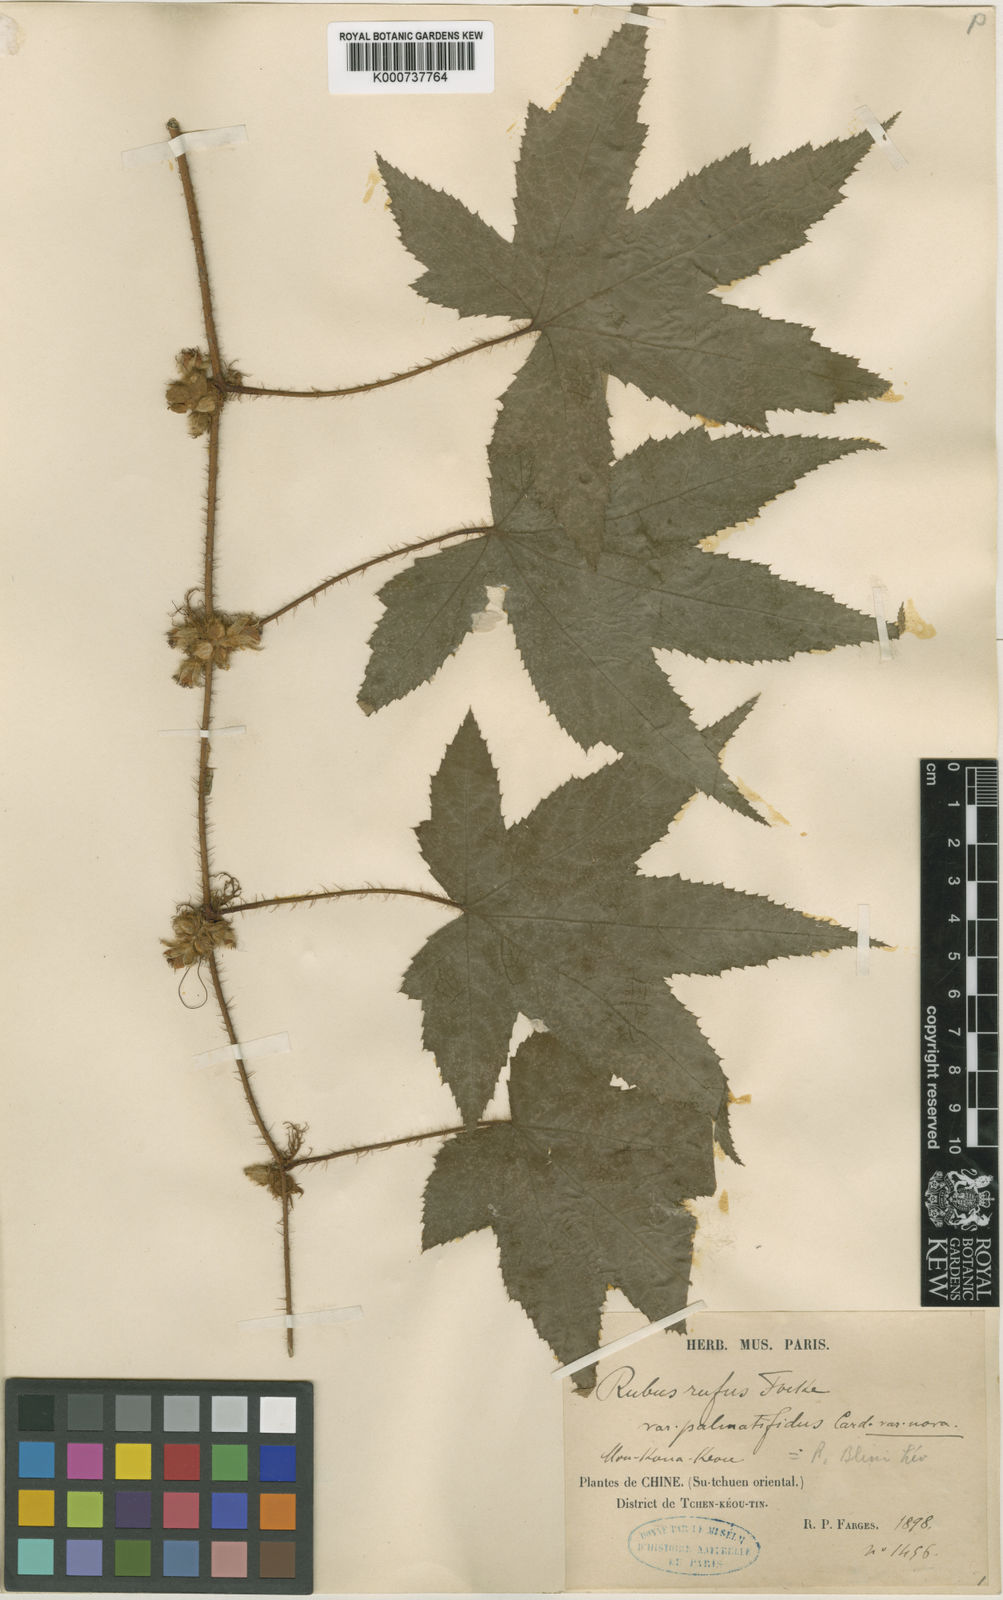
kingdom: Plantae
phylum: Tracheophyta
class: Magnoliopsida
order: Rosales
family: Rosaceae
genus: Rubus
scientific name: Rubus rufus
